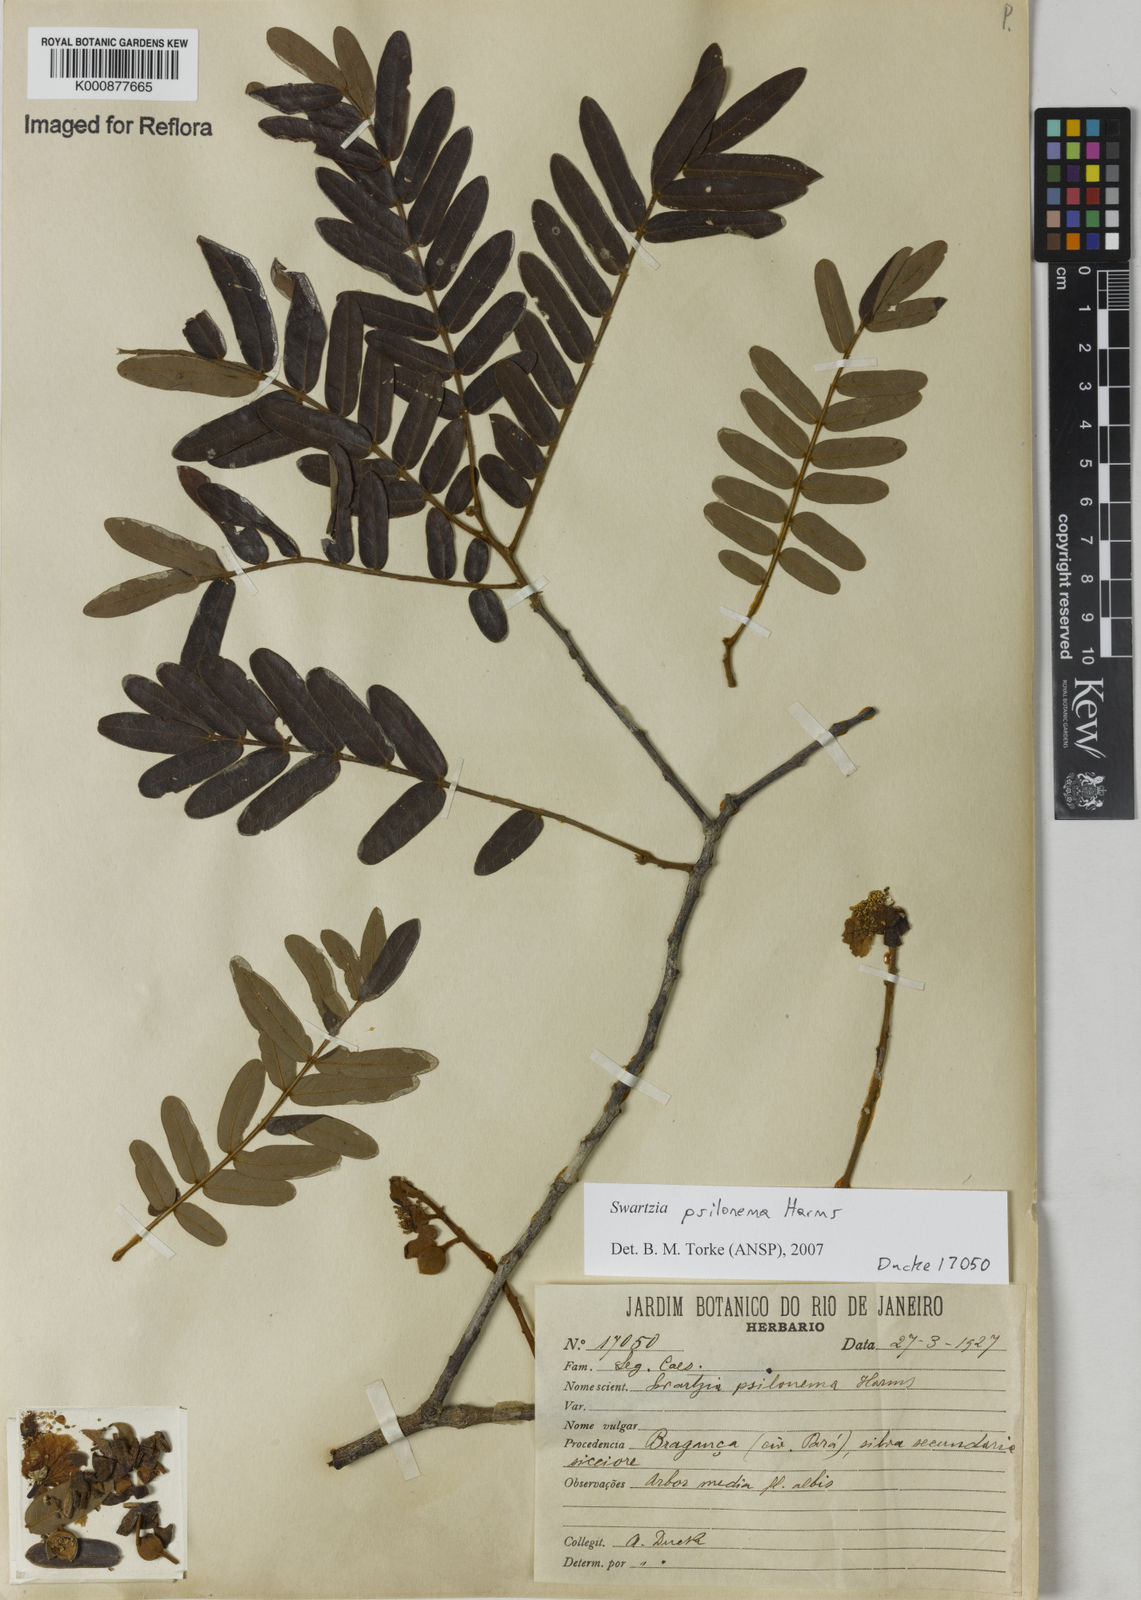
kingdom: Plantae
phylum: Tracheophyta
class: Magnoliopsida
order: Fabales
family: Fabaceae
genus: Swartzia
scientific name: Swartzia psilonema
